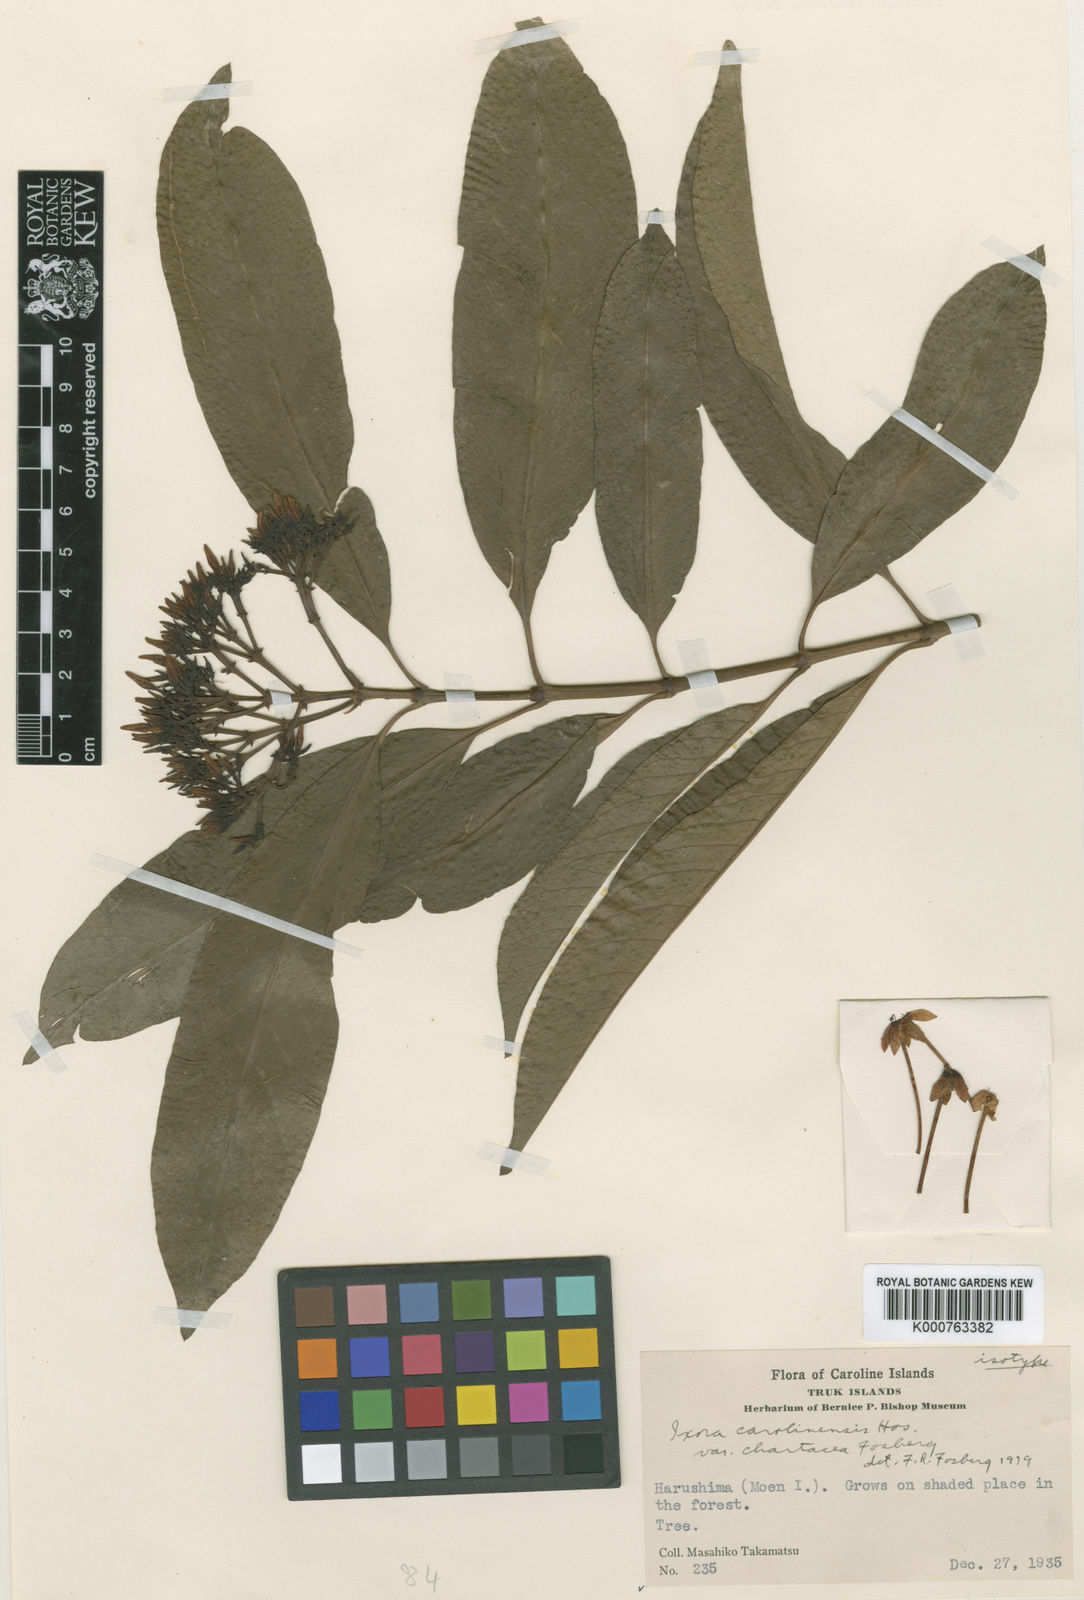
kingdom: Plantae
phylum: Tracheophyta
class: Magnoliopsida
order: Gentianales
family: Rubiaceae
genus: Ixora
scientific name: Ixora casei
